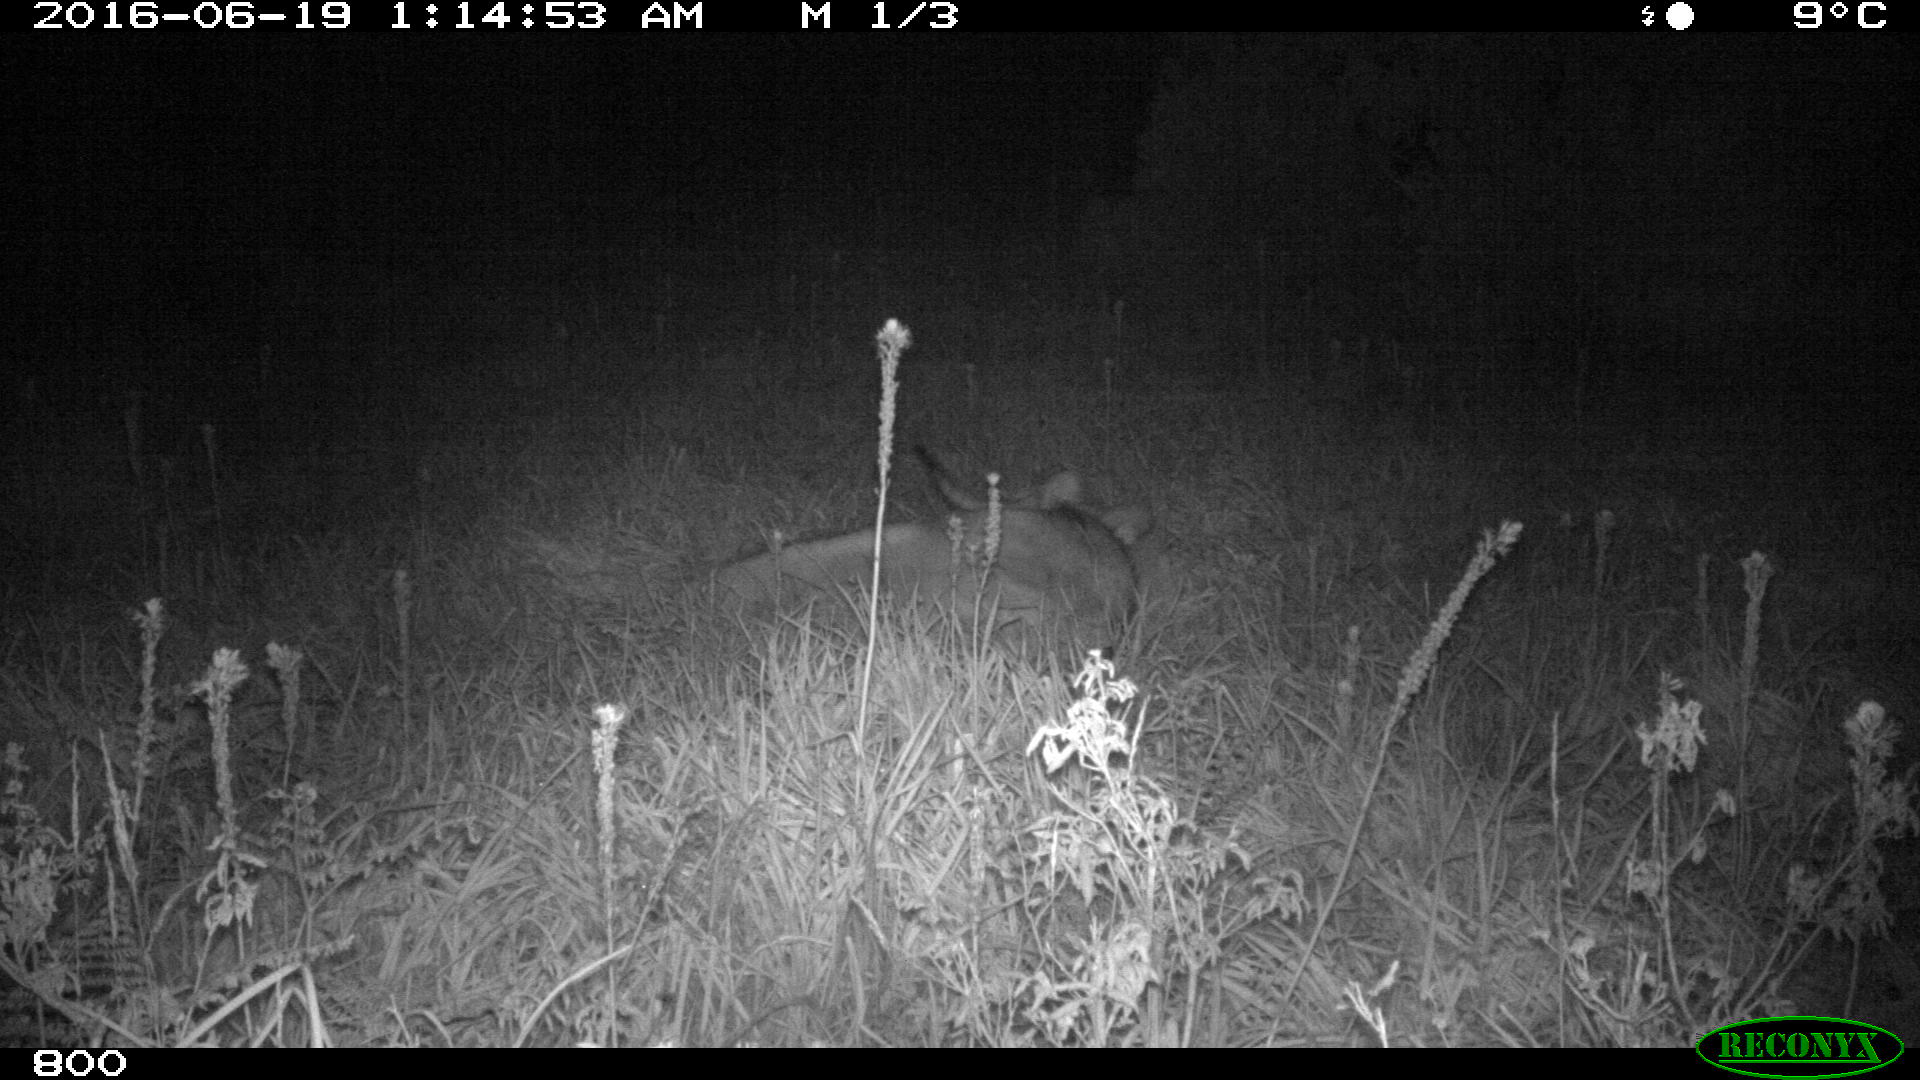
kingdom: Animalia
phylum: Chordata
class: Mammalia
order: Artiodactyla
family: Bovidae
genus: Bos
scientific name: Bos taurus
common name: Domesticated cattle
